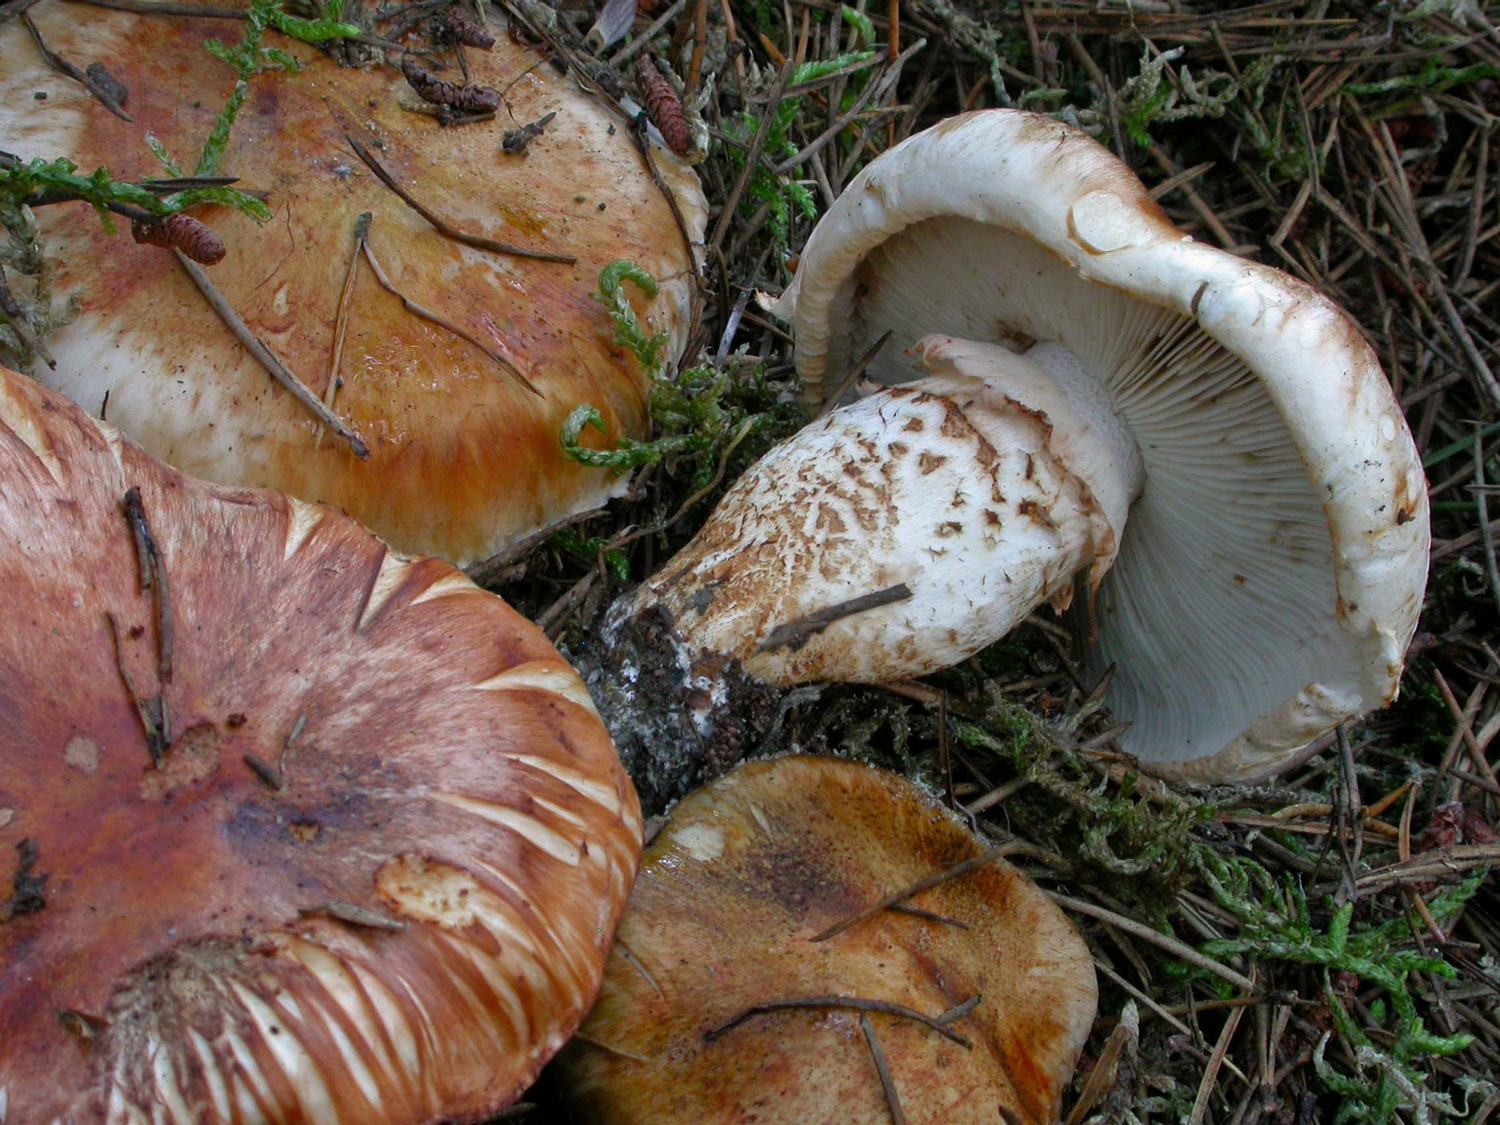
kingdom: Fungi
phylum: Basidiomycota
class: Agaricomycetes
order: Agaricales
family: Tricholomataceae
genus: Tricholoma
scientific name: Tricholoma focale
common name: halsbånd-ridderhat
